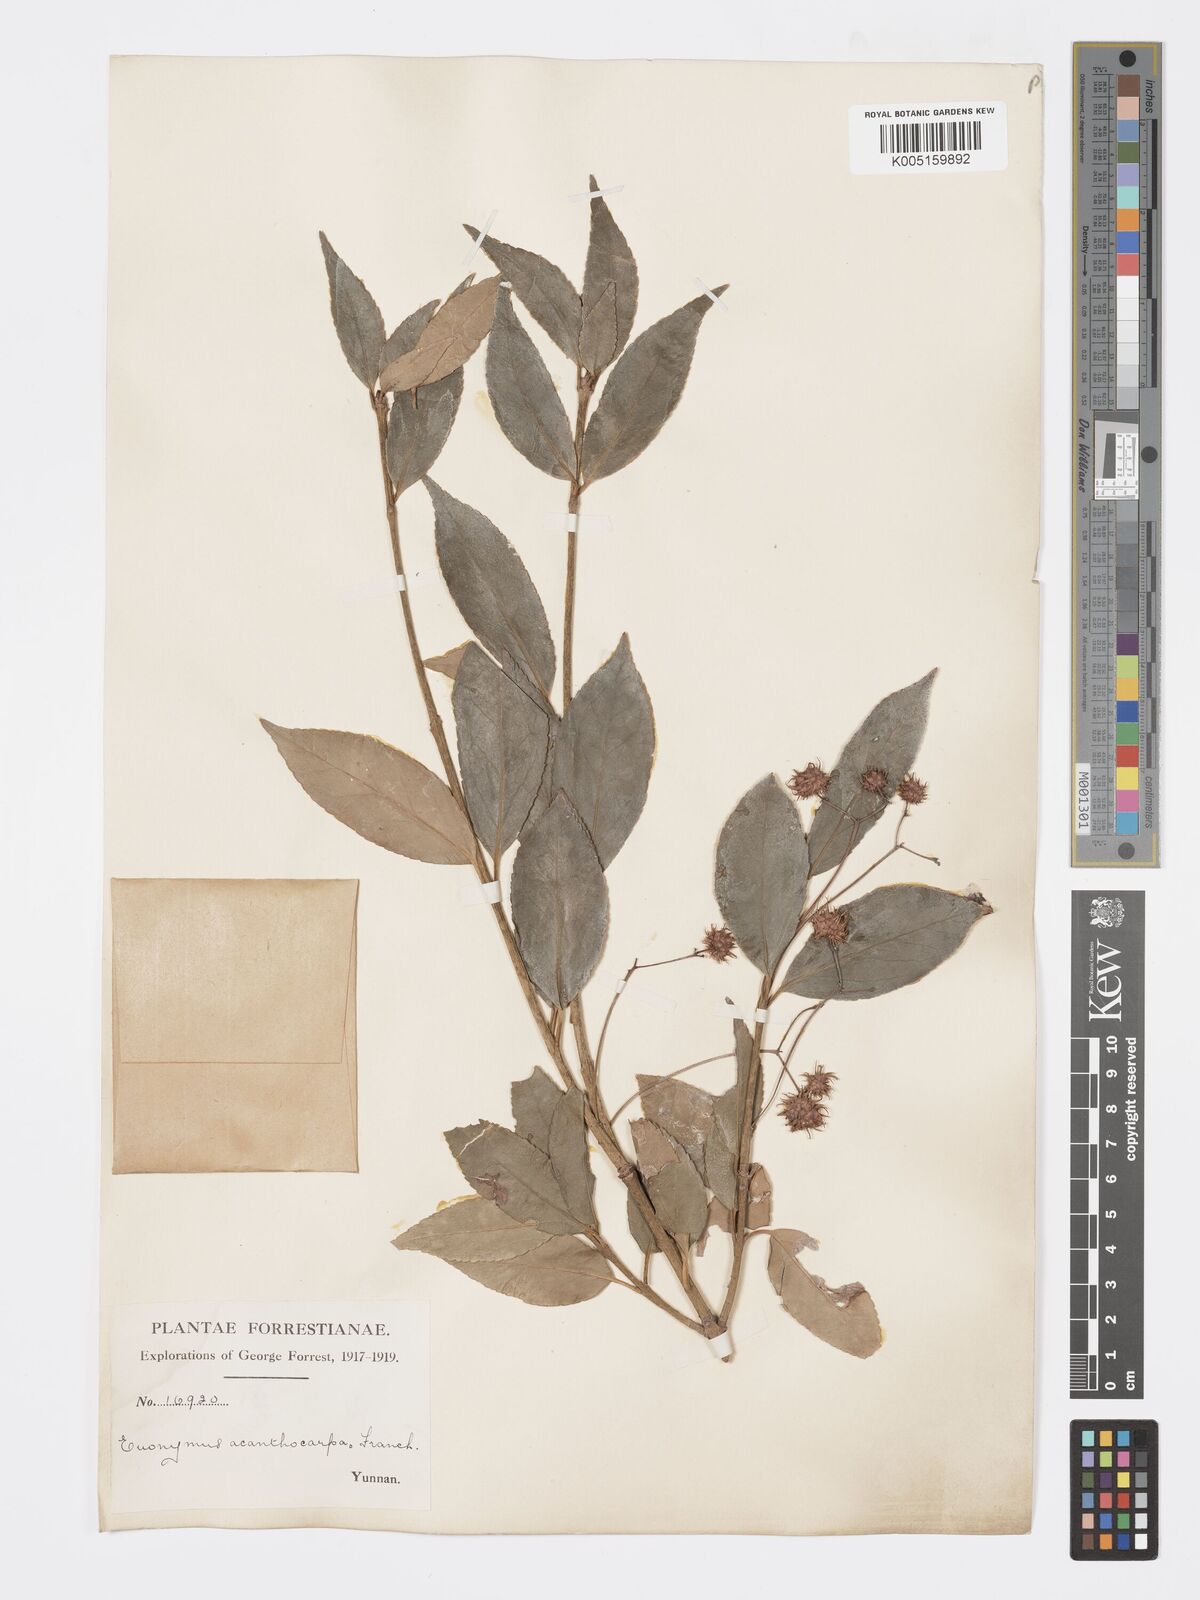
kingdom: Plantae
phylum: Tracheophyta
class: Magnoliopsida
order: Celastrales
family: Celastraceae
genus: Euonymus
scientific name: Euonymus acanthocarpus
